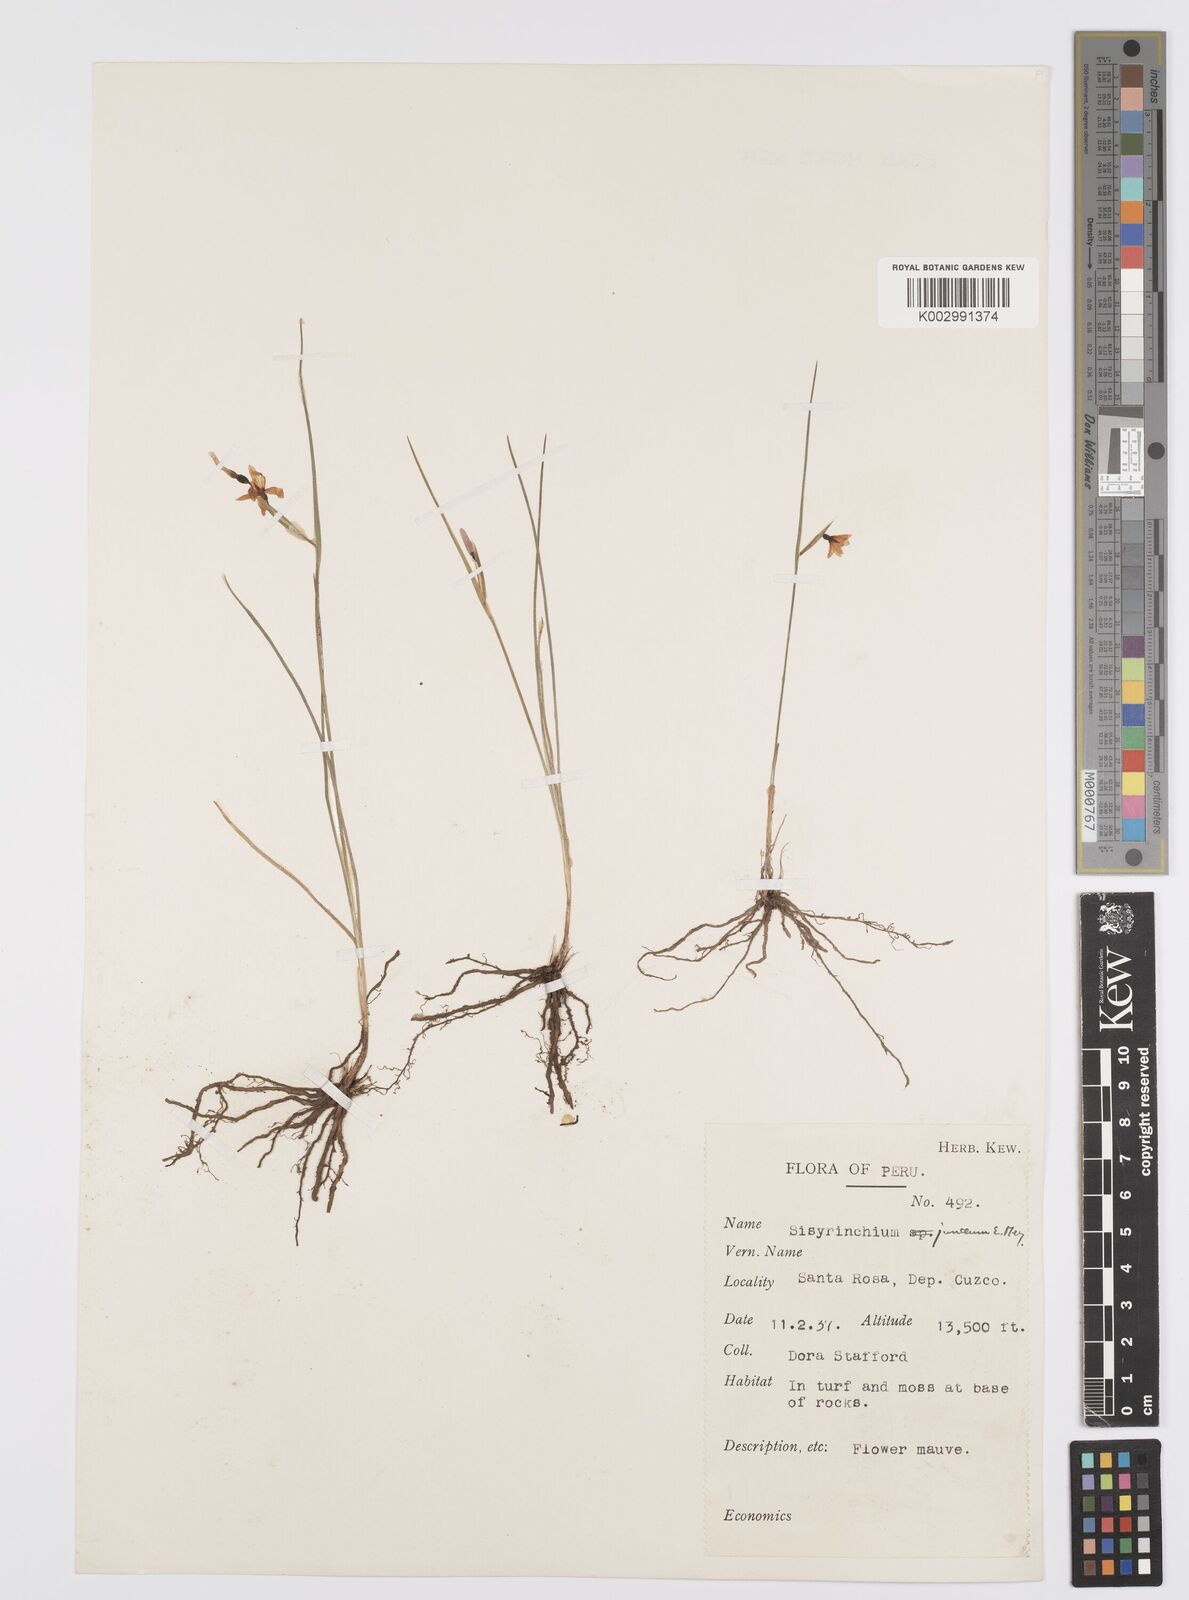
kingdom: Plantae
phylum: Tracheophyta
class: Liliopsida
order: Asparagales
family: Iridaceae
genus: Olsynium
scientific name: Olsynium
